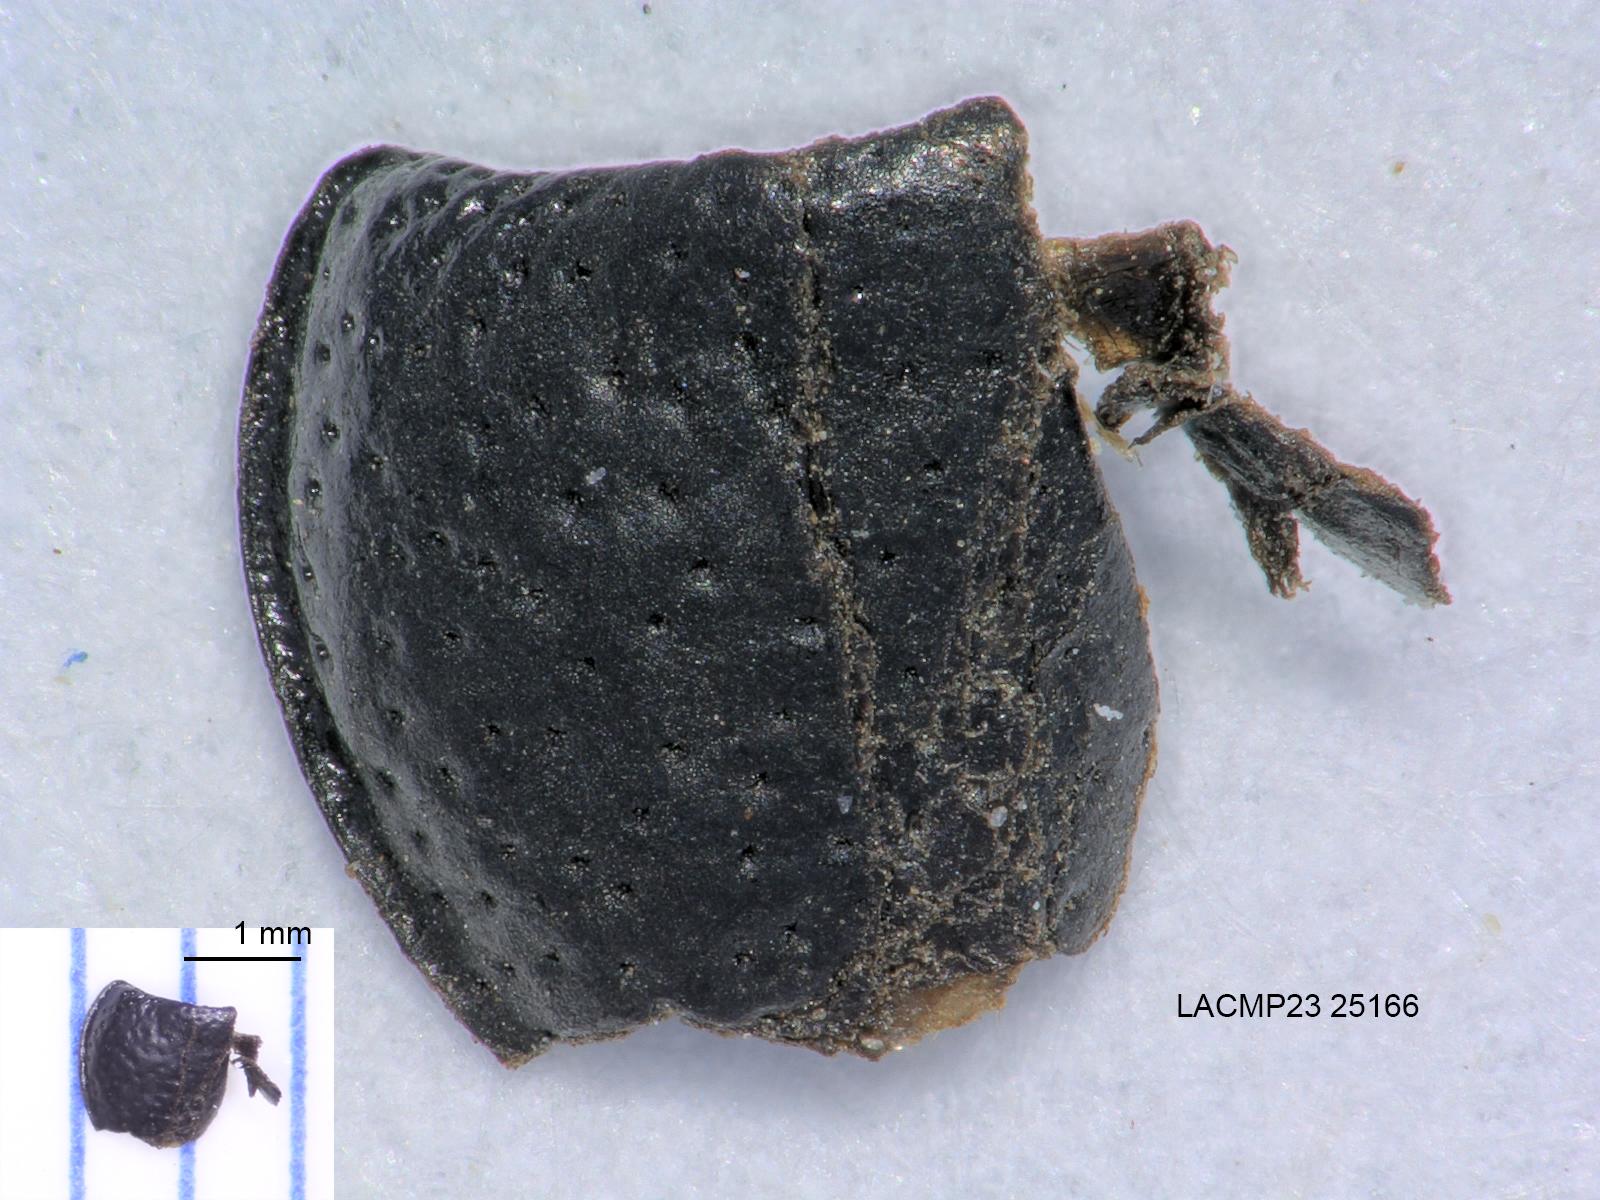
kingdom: Animalia
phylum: Arthropoda
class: Insecta
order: Coleoptera
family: Carabidae
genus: Dicheirus
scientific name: Dicheirus dilatatus
